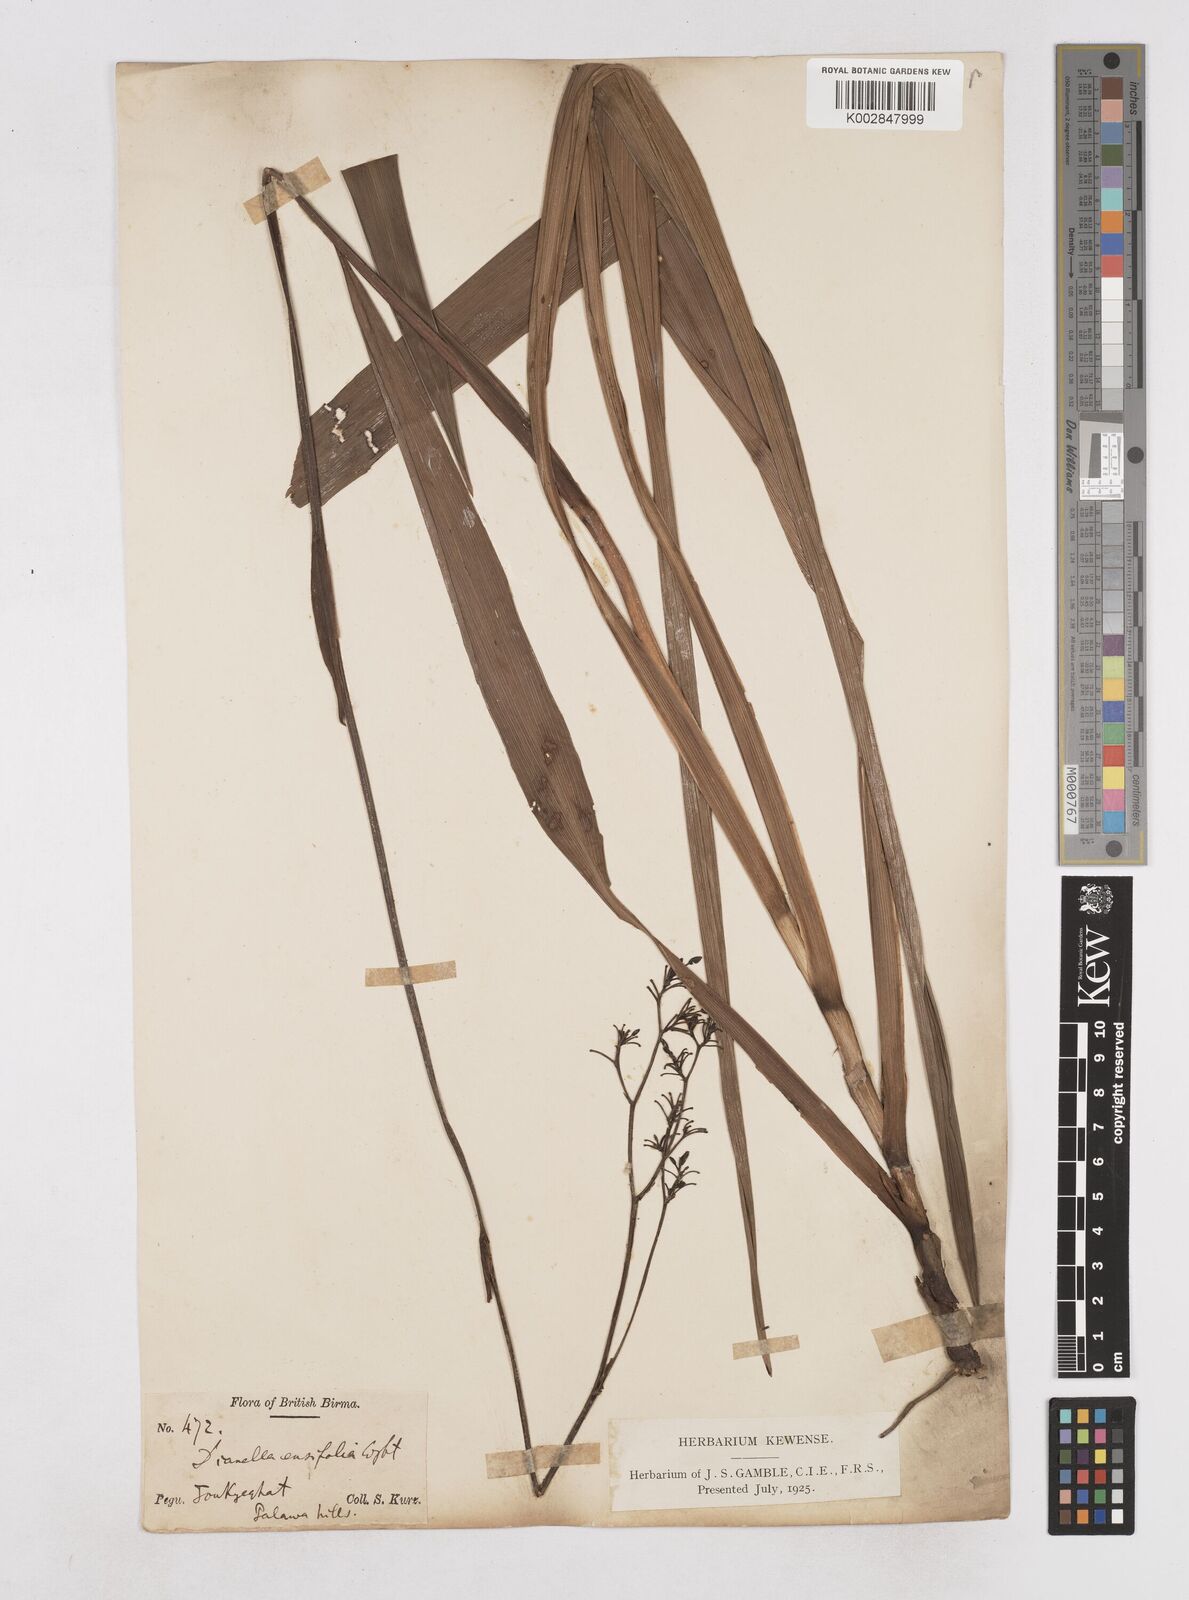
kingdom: Plantae
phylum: Tracheophyta
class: Liliopsida
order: Asparagales
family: Asphodelaceae
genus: Dianella
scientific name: Dianella ensifolia
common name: New zealand lilyplant
